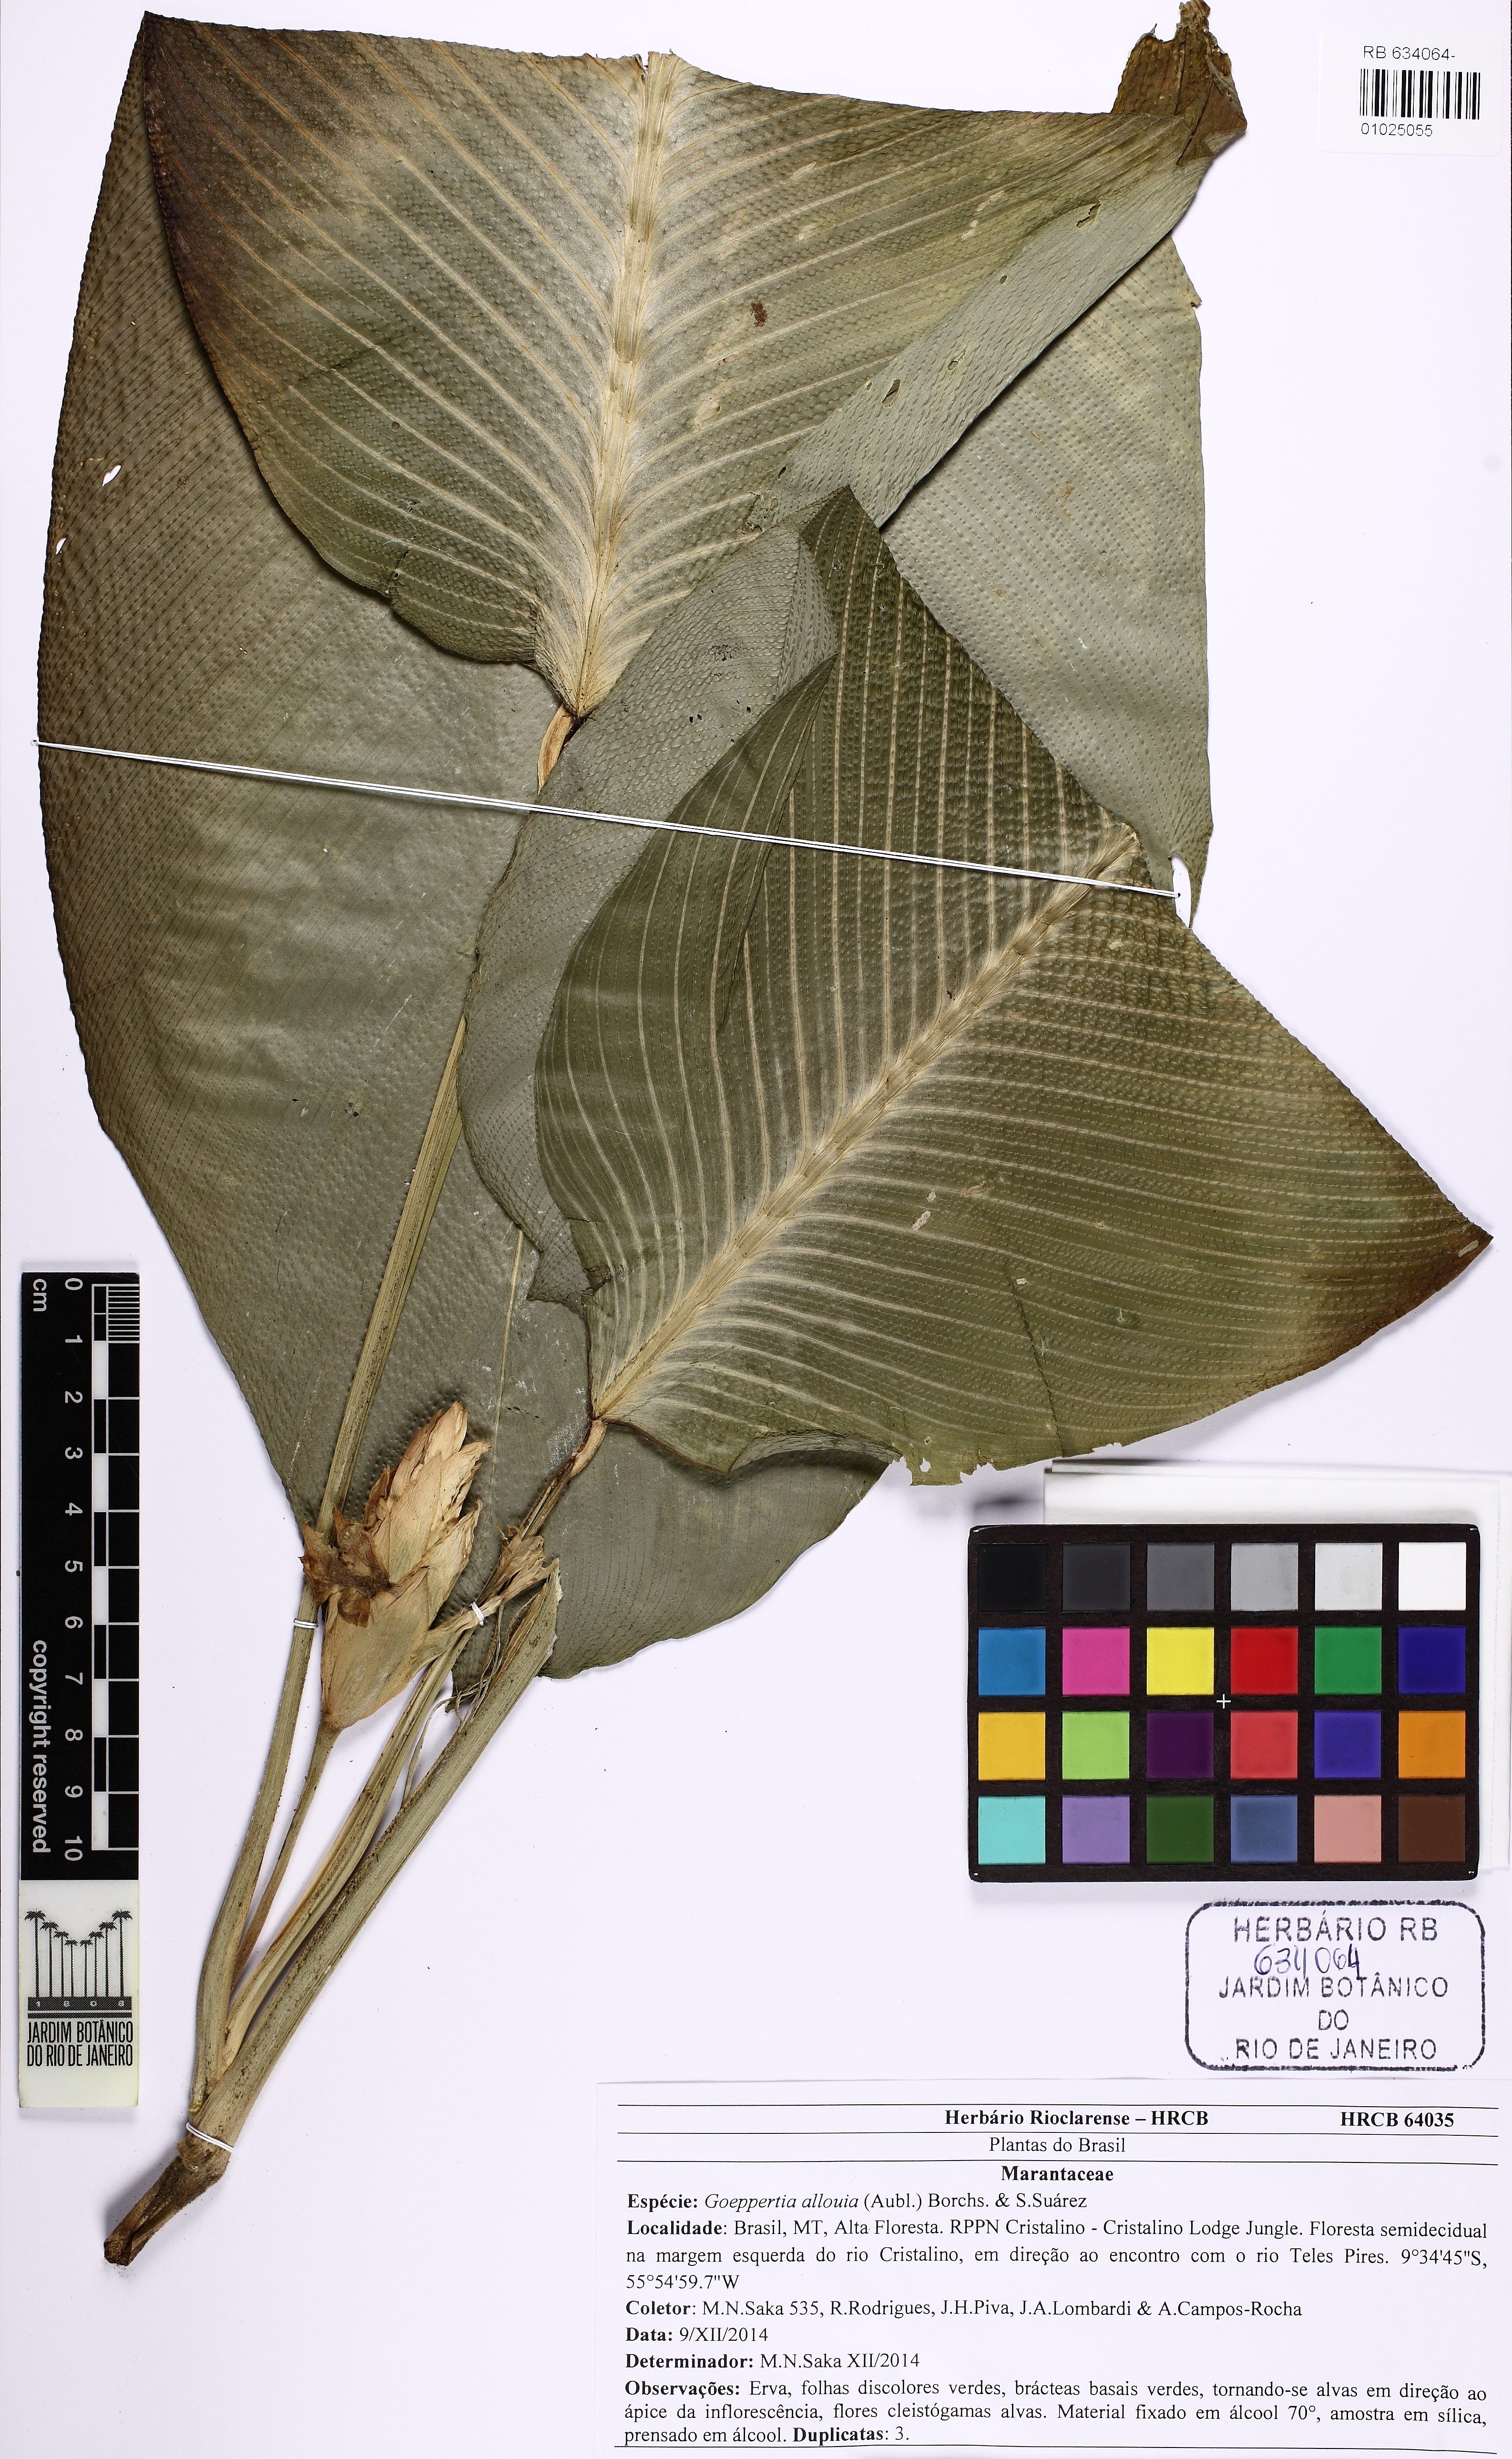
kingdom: Plantae
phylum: Tracheophyta
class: Liliopsida
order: Zingiberales
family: Marantaceae
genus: Goeppertia
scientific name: Goeppertia allouia
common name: Sweet corn-tuber
